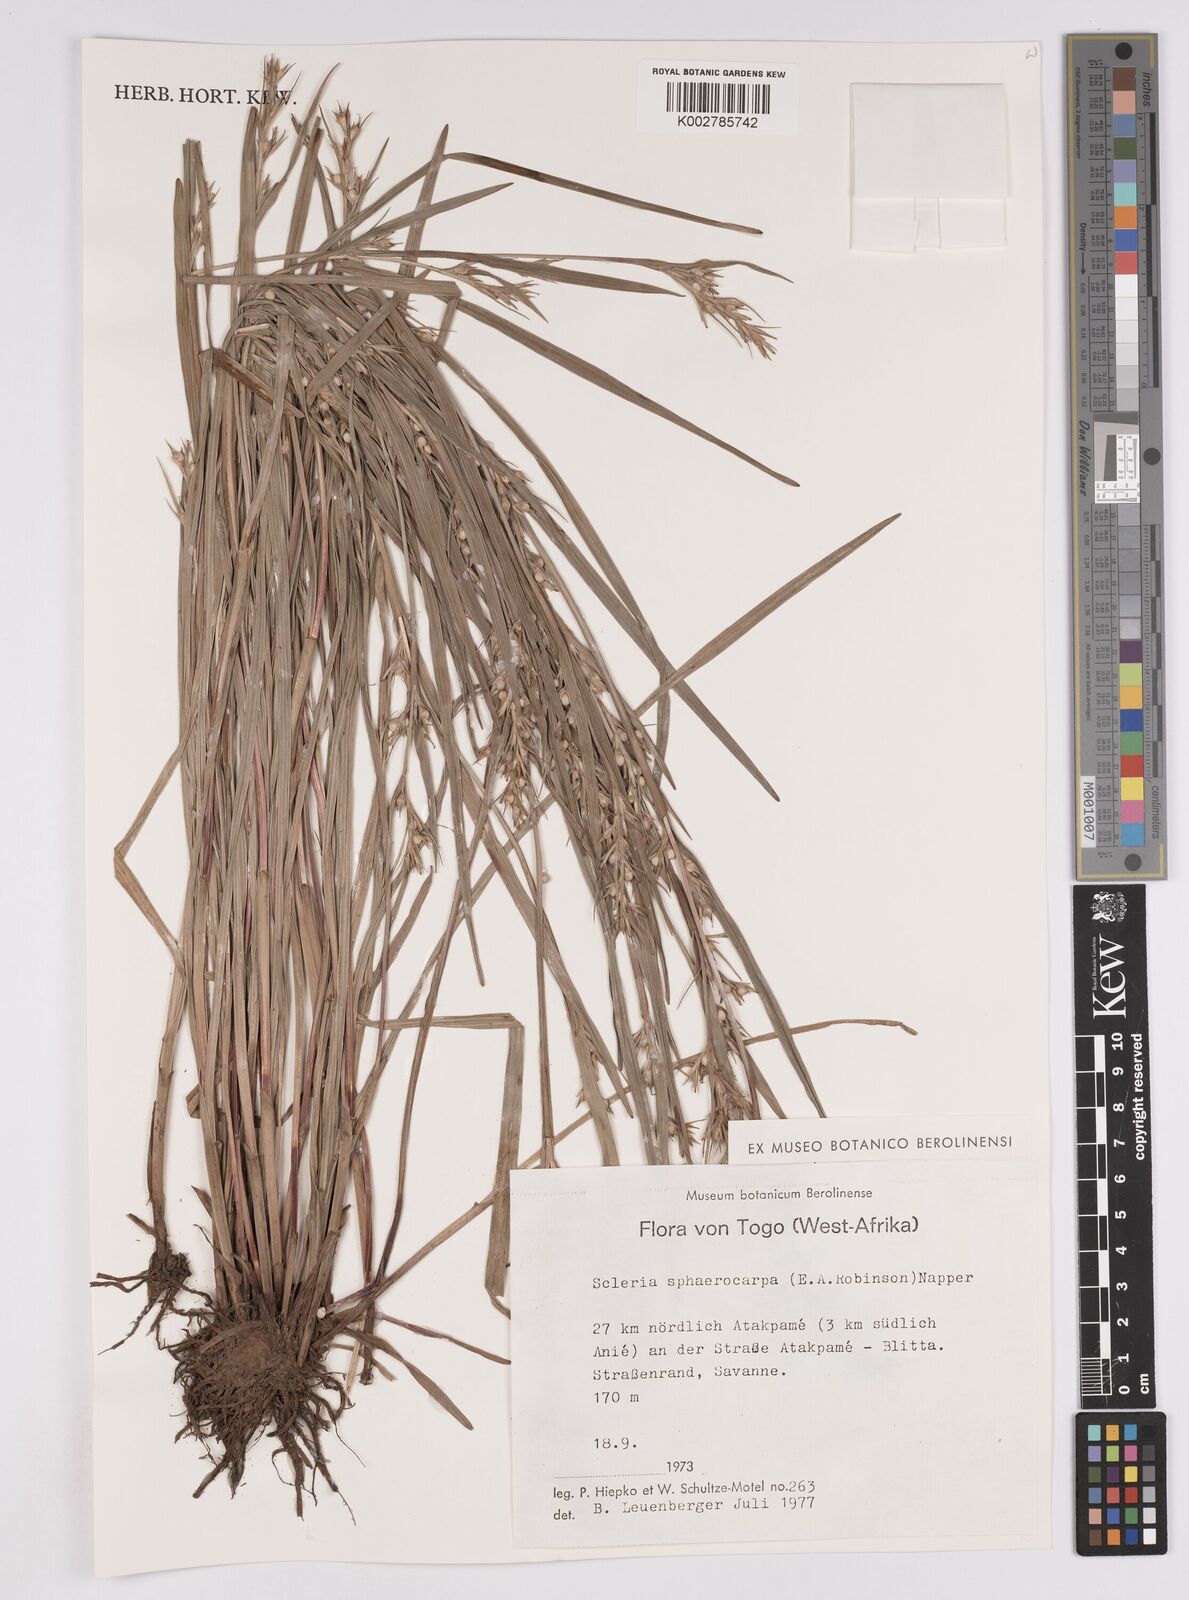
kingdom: Plantae
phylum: Tracheophyta
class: Liliopsida
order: Poales
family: Cyperaceae
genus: Scleria
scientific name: Scleria tessellata
